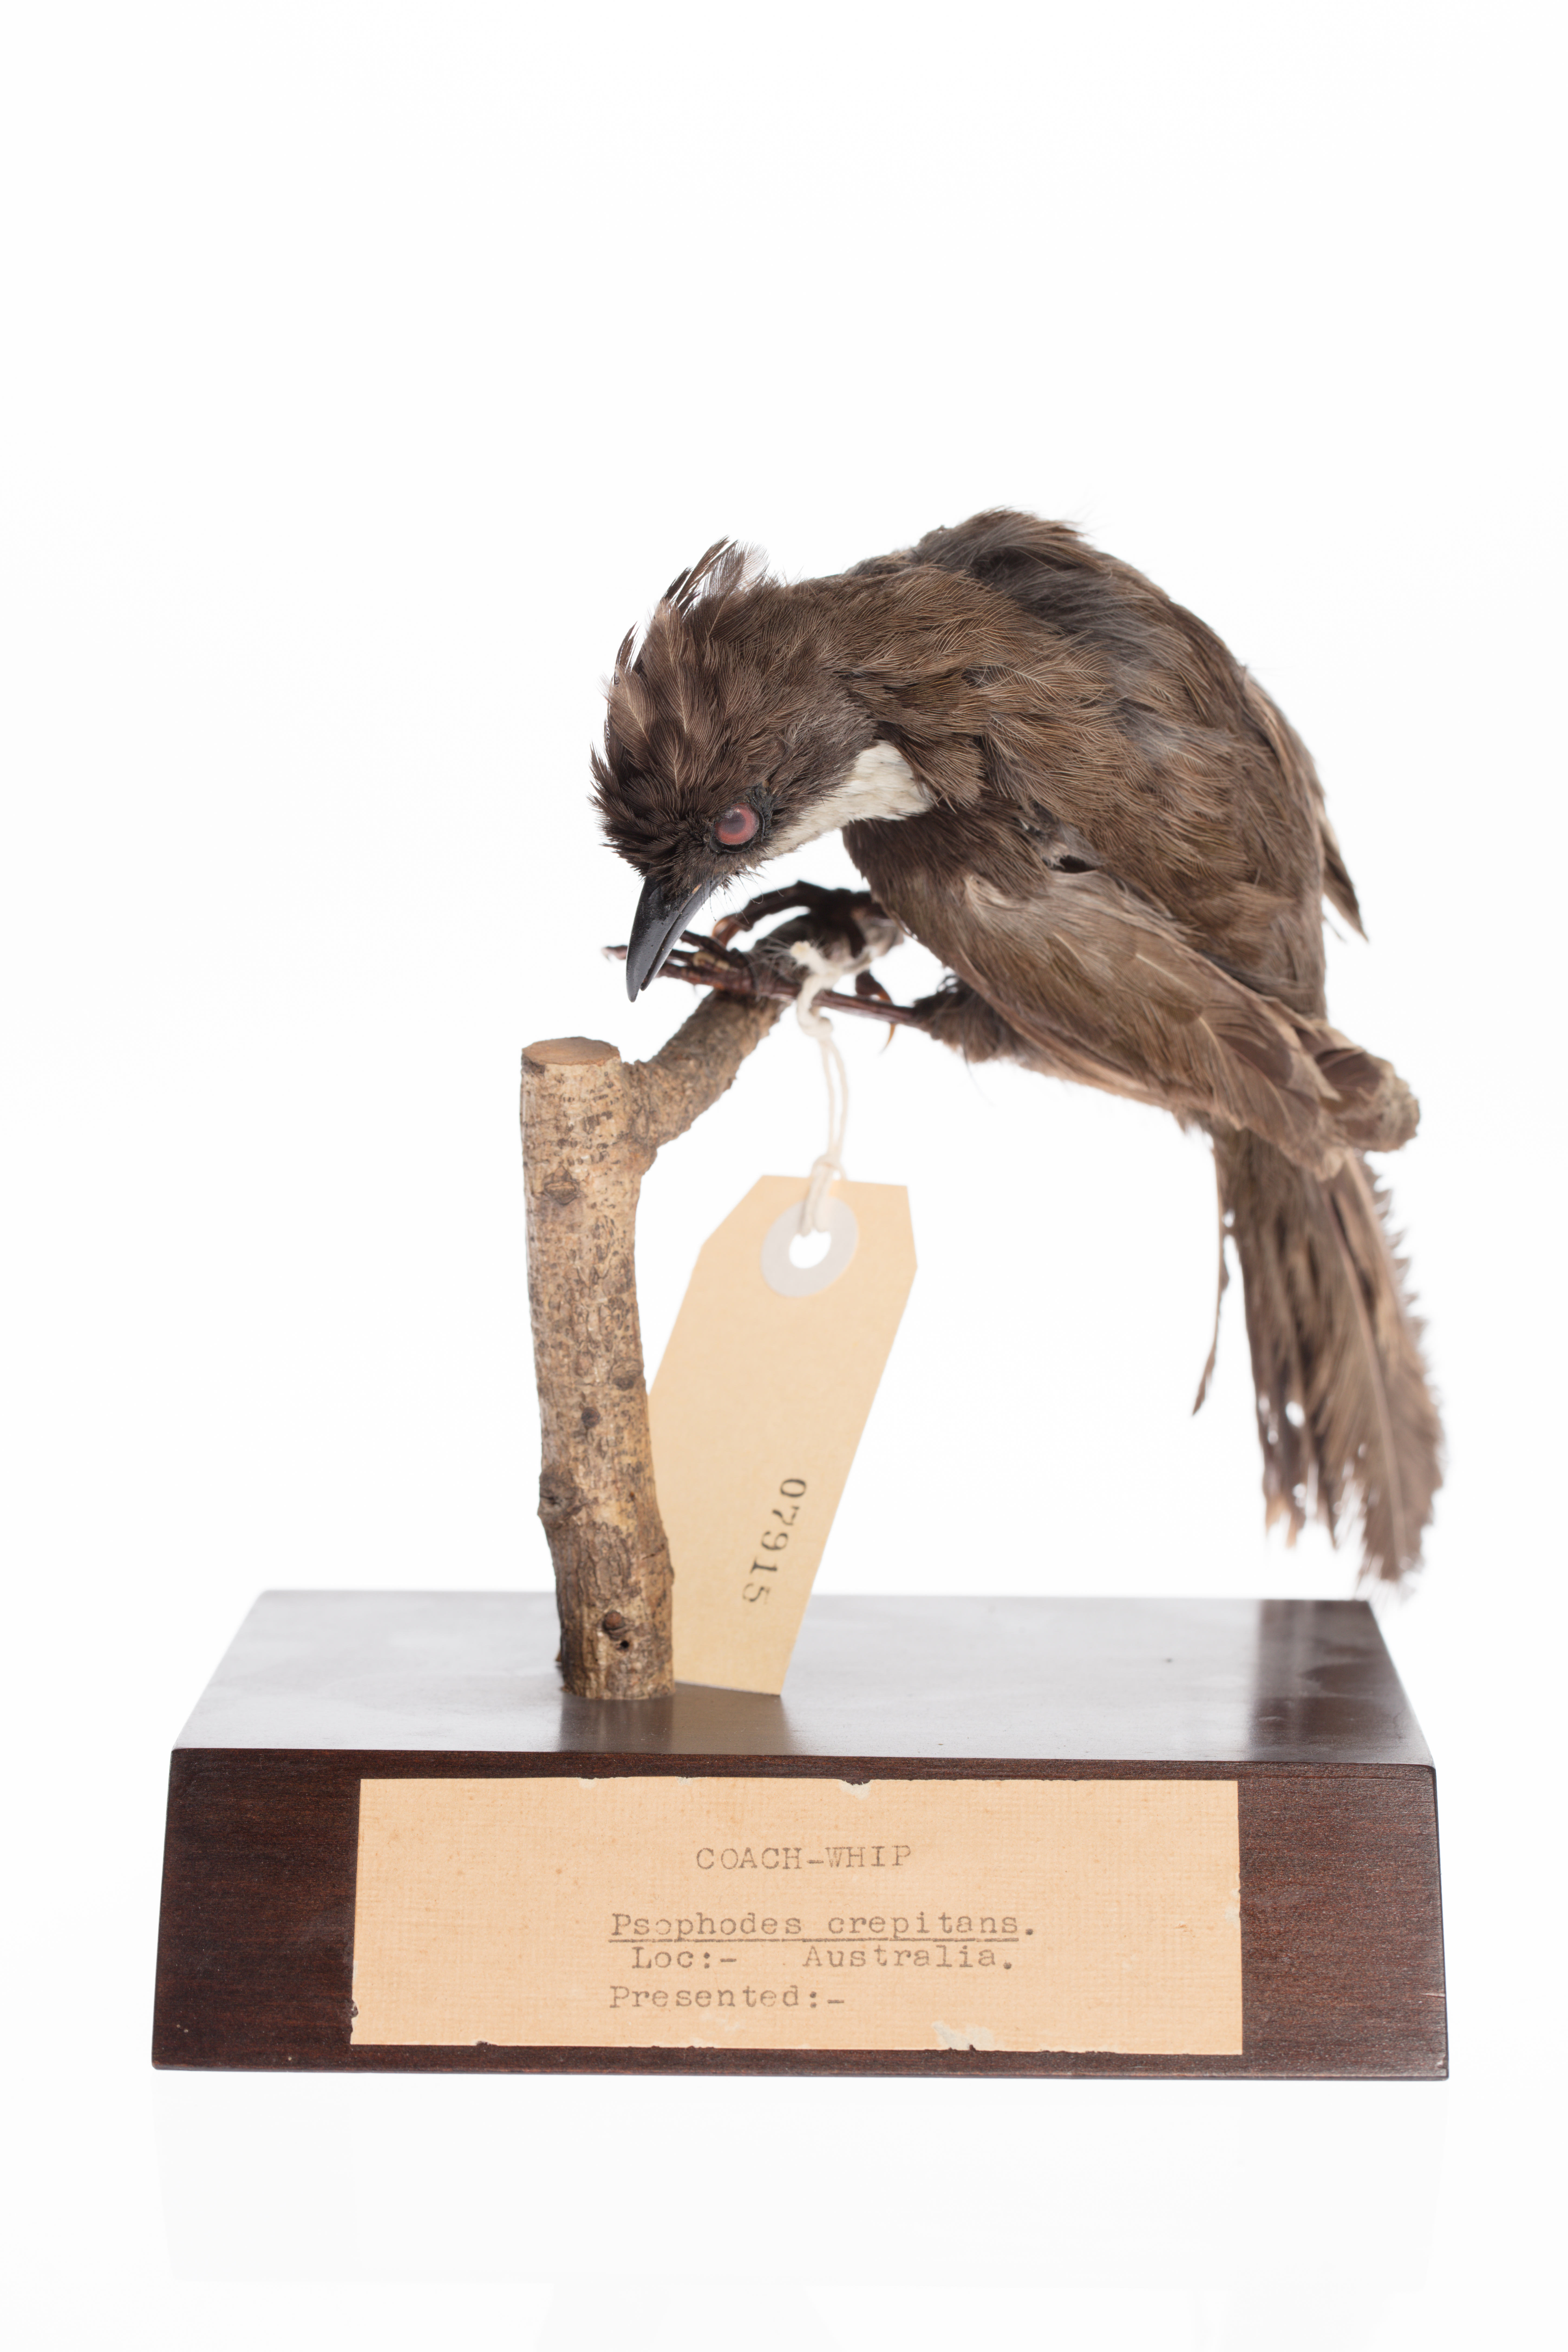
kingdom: Animalia
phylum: Chordata
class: Aves
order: Passeriformes
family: Psophodidae
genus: Psophodes
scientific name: Psophodes olivaceus
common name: Eastern whipbird
